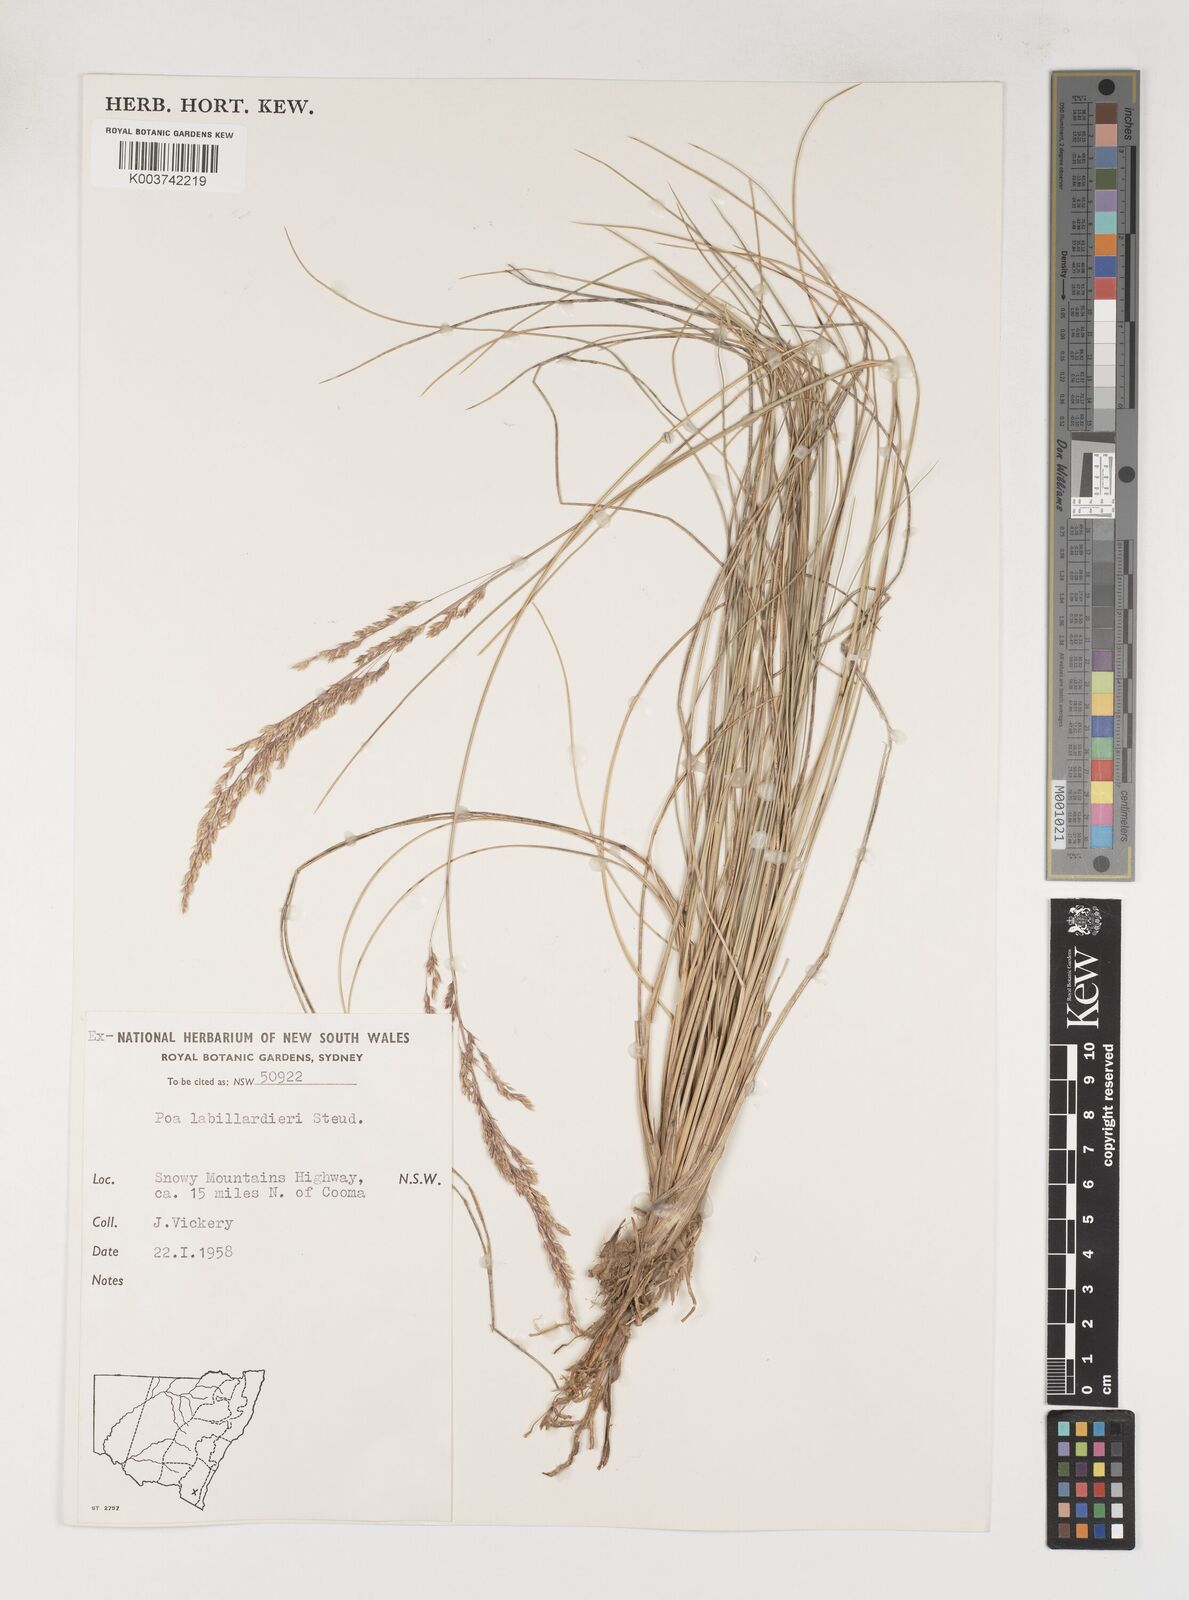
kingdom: Plantae
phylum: Tracheophyta
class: Liliopsida
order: Poales
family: Poaceae
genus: Poa
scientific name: Poa labillardierei
